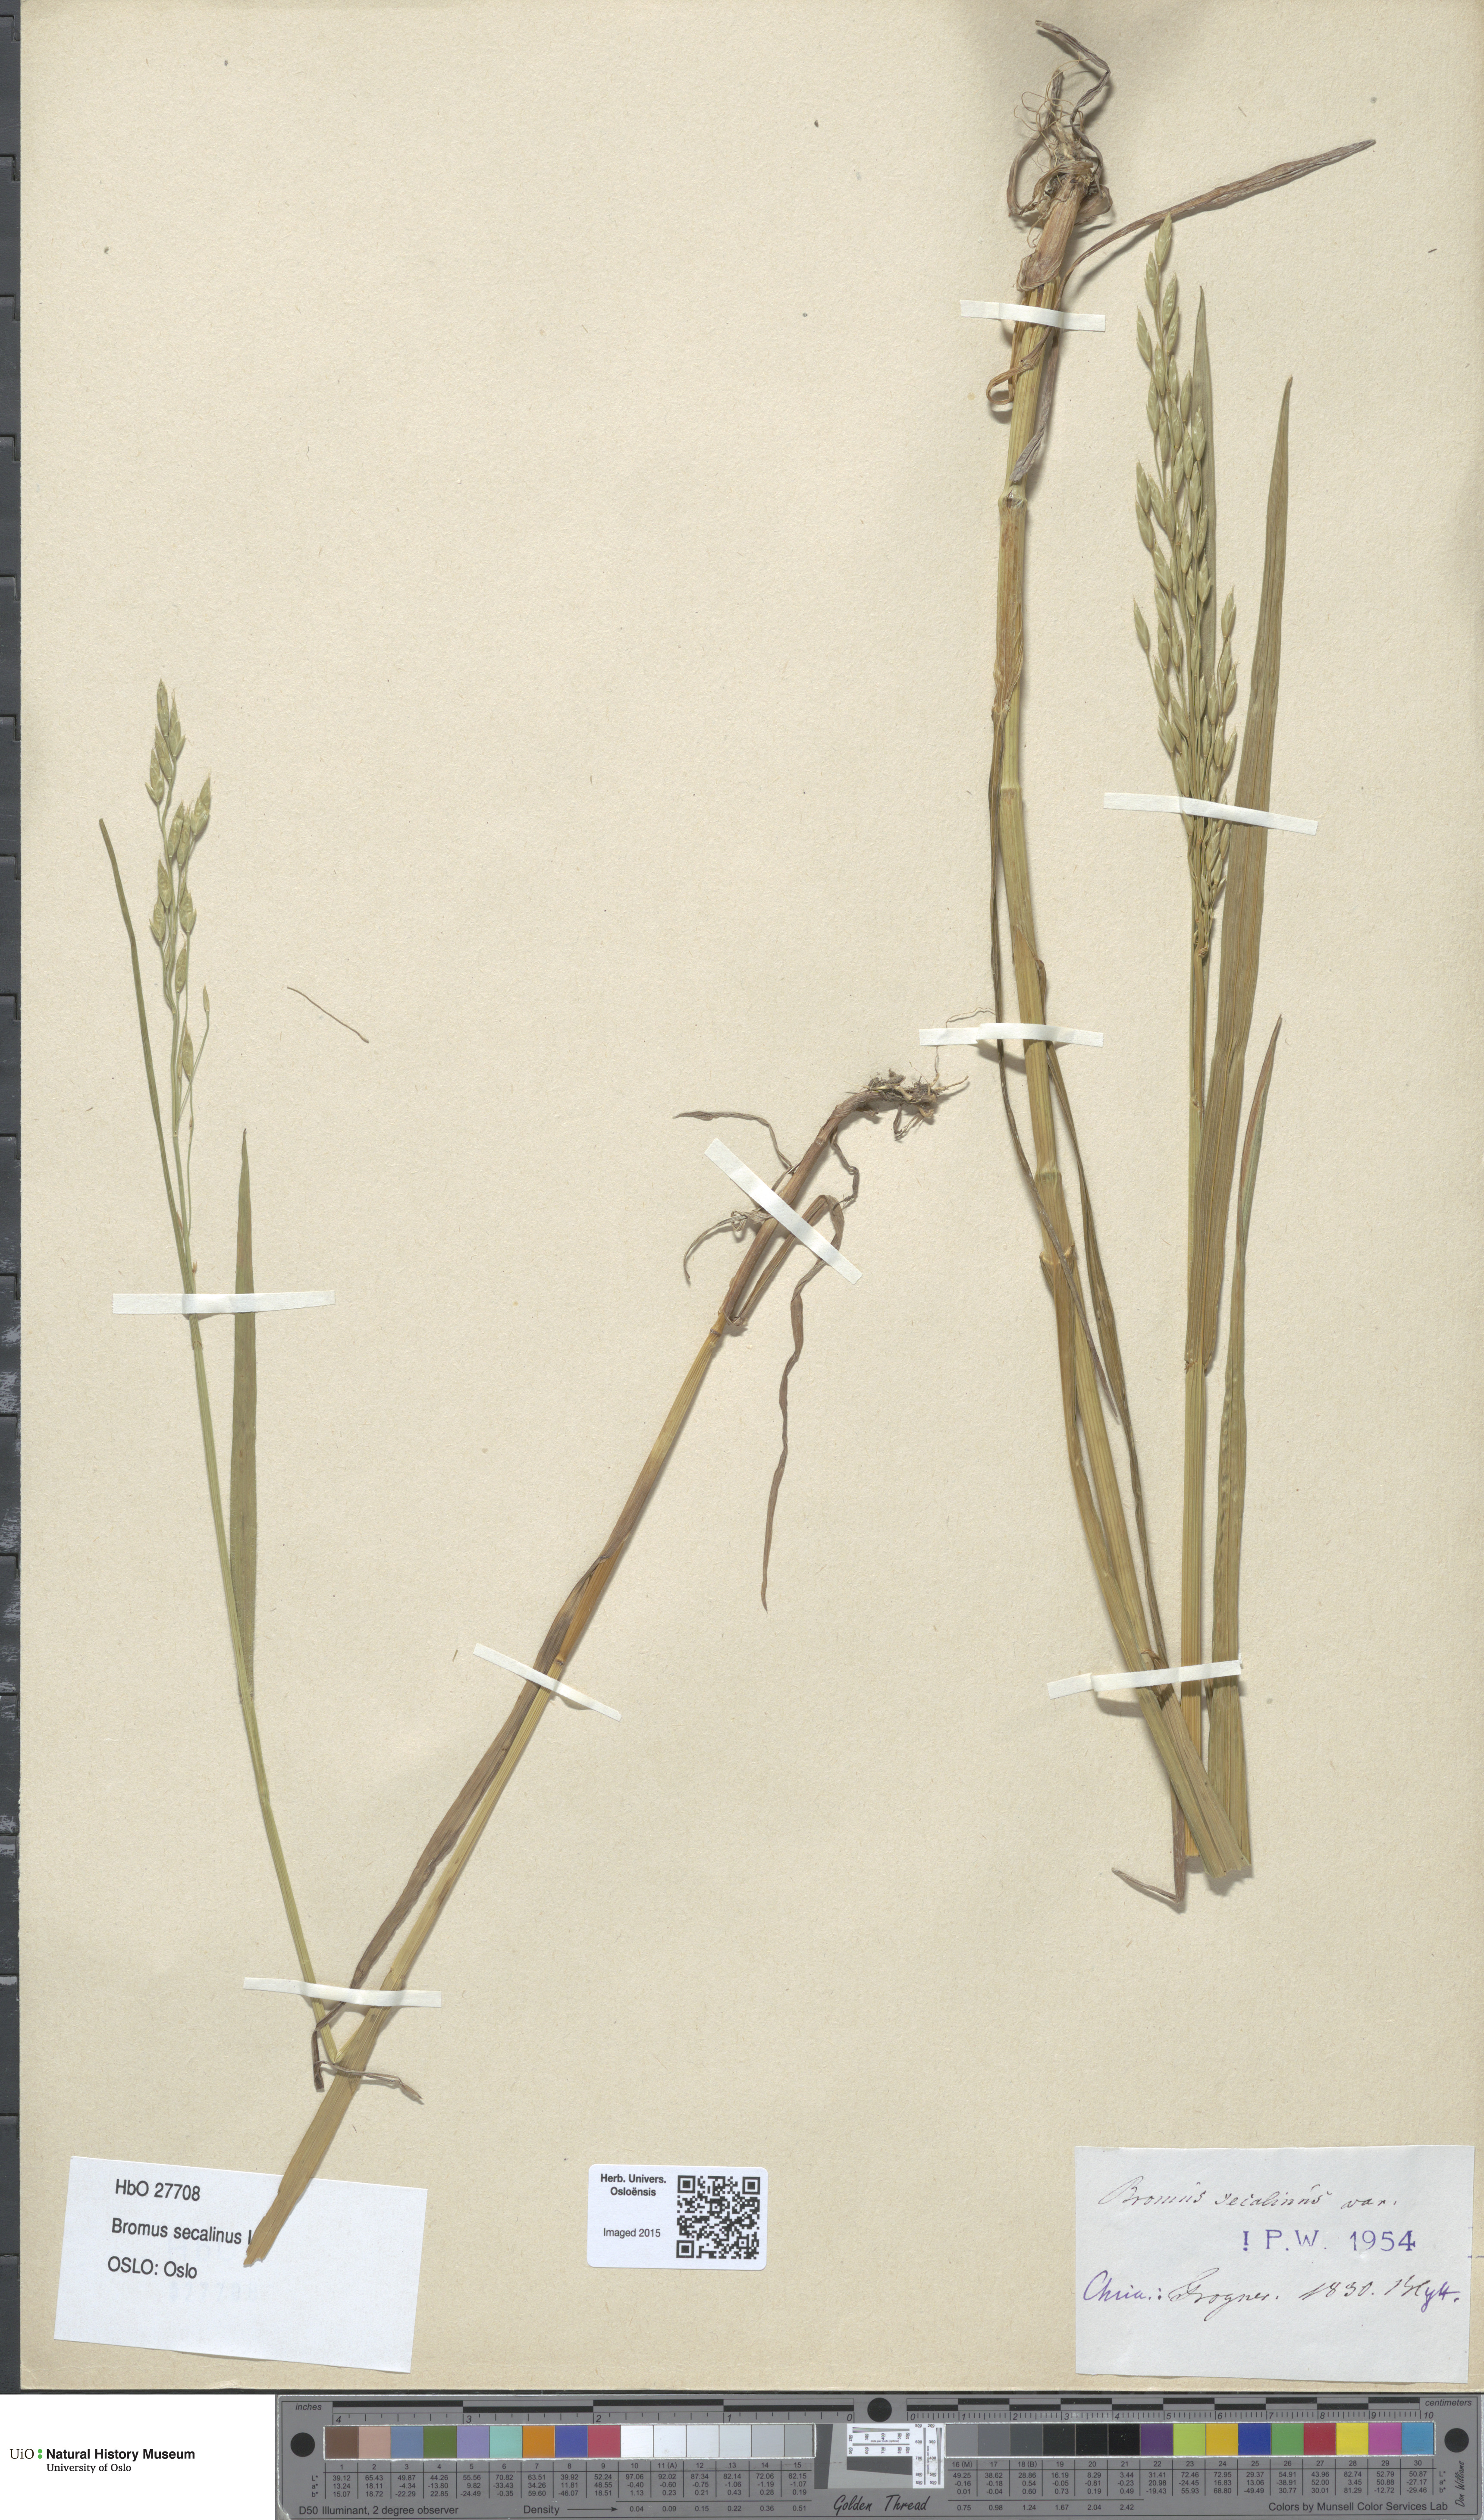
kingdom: Plantae
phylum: Tracheophyta
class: Liliopsida
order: Poales
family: Poaceae
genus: Bromus
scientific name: Bromus secalinus
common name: Rye brome
